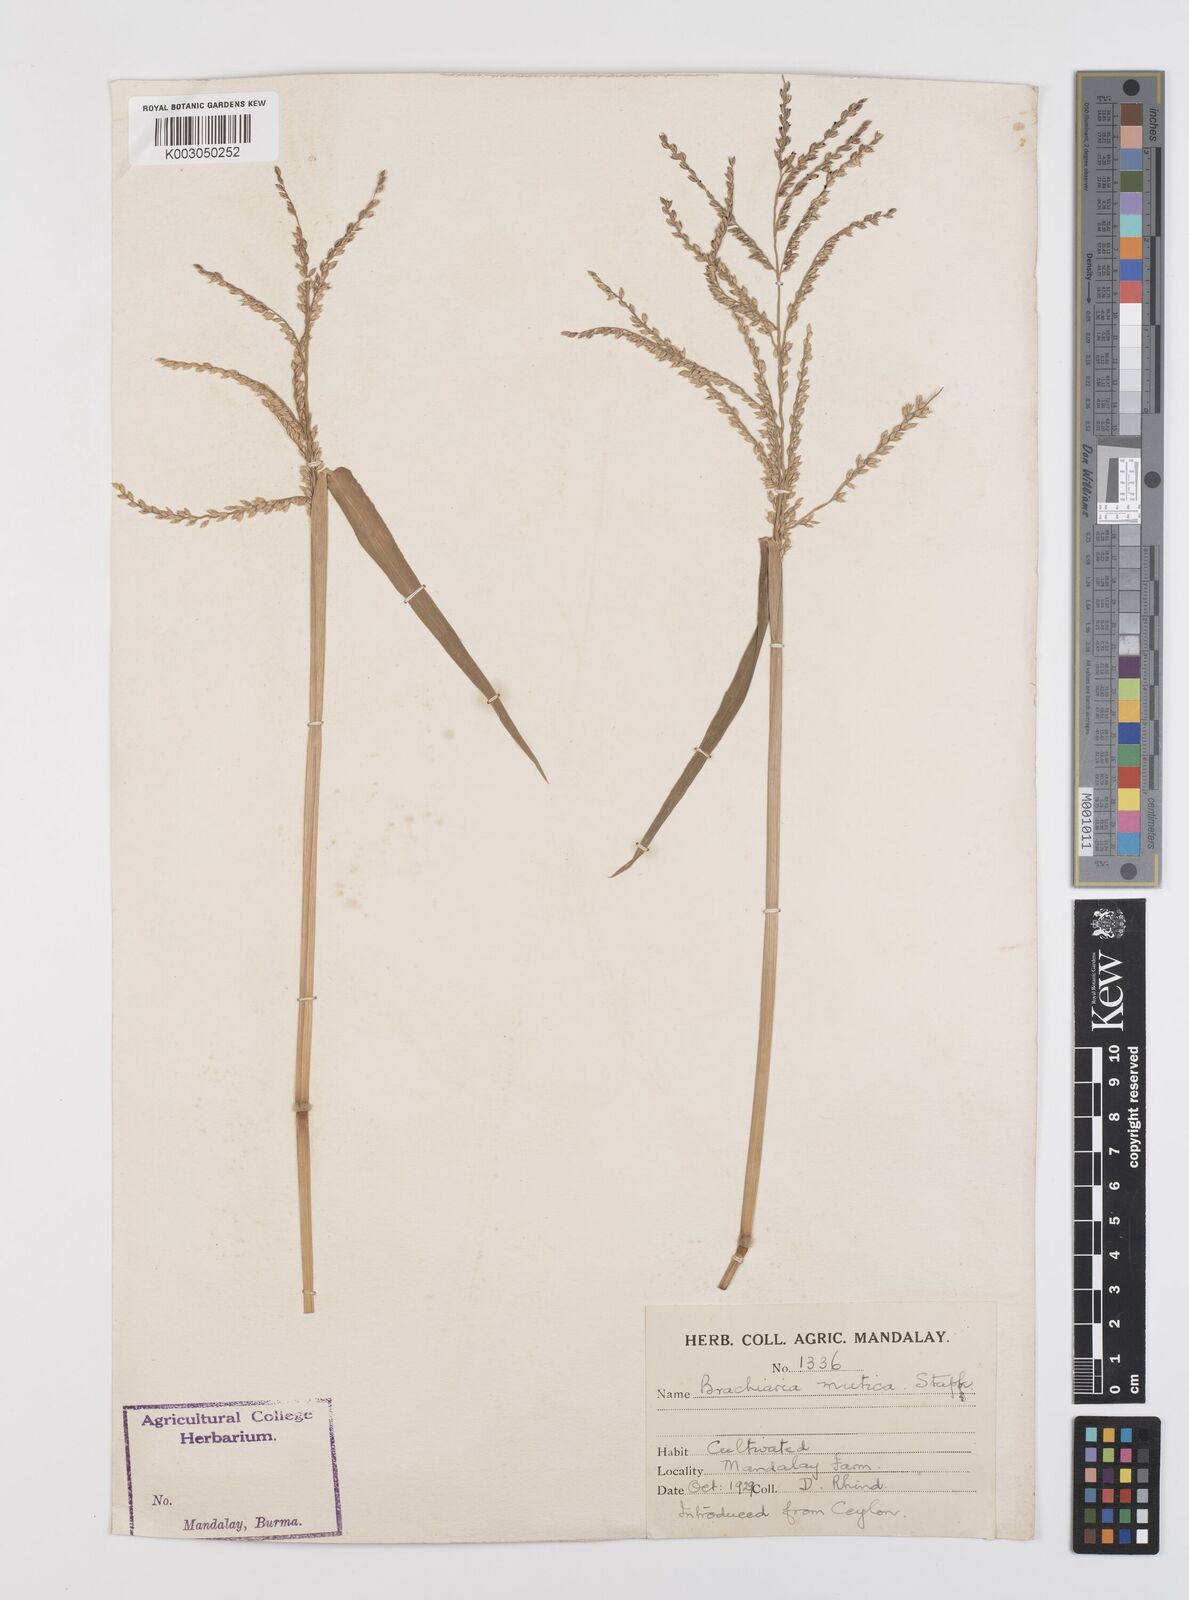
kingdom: Plantae
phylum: Tracheophyta
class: Liliopsida
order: Poales
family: Poaceae
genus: Urochloa
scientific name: Urochloa mutica
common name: Para grass
